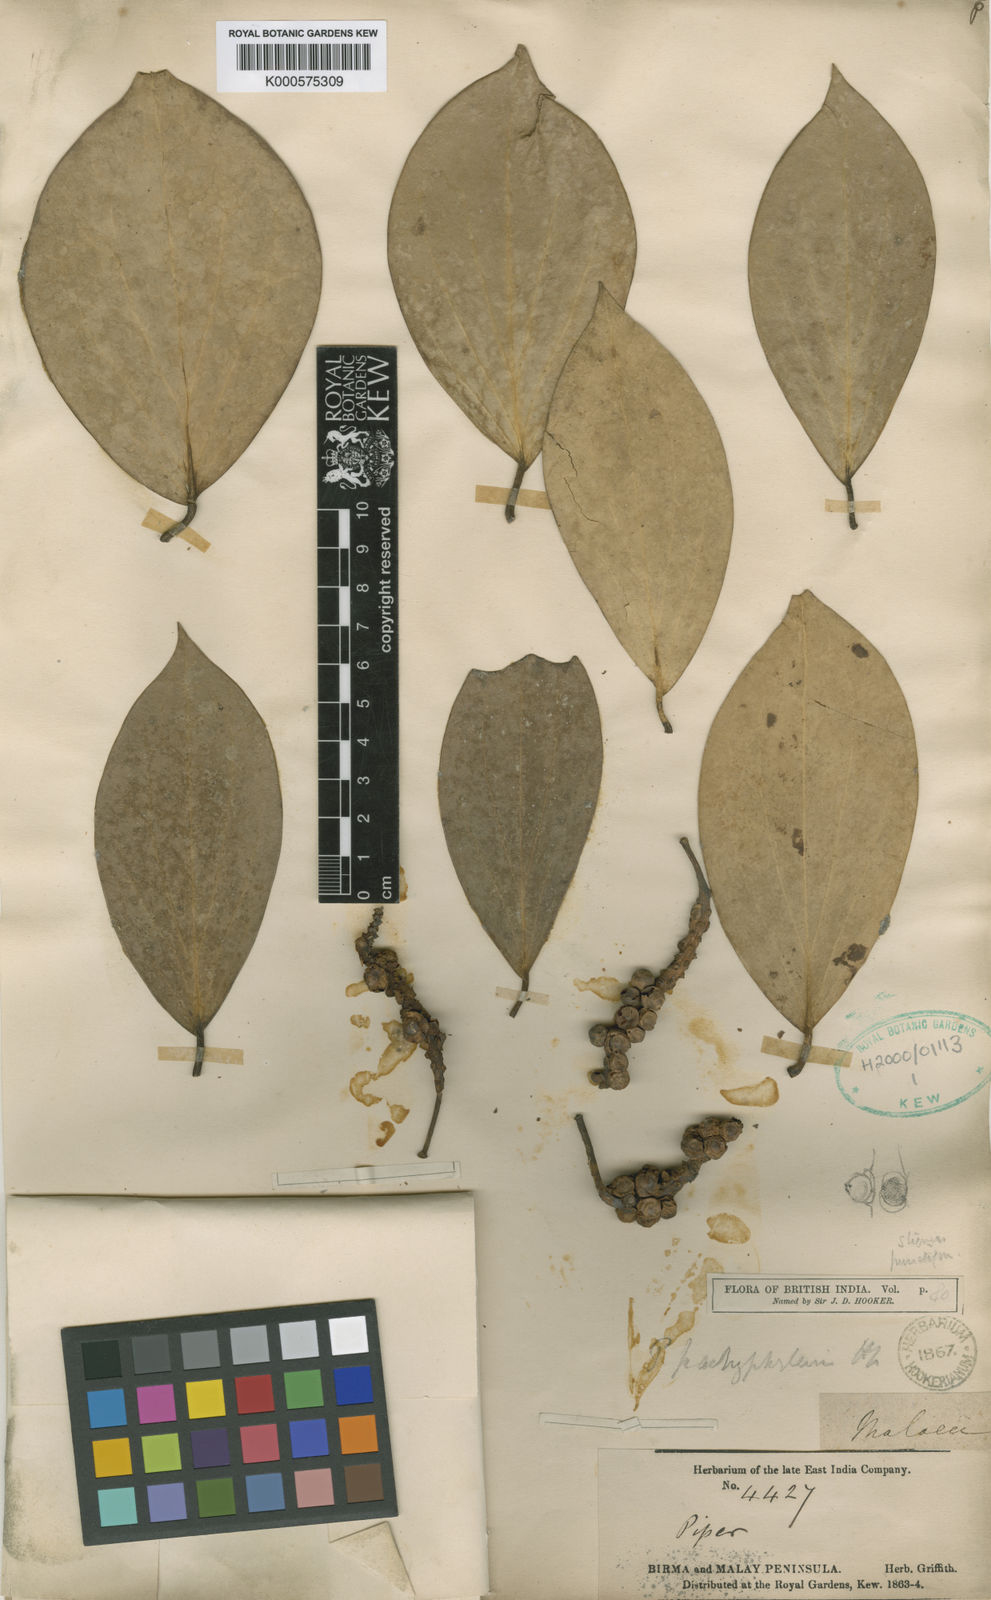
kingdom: Plantae
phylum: Tracheophyta
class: Magnoliopsida
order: Piperales
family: Piperaceae
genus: Piper
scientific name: Piper baccatum
